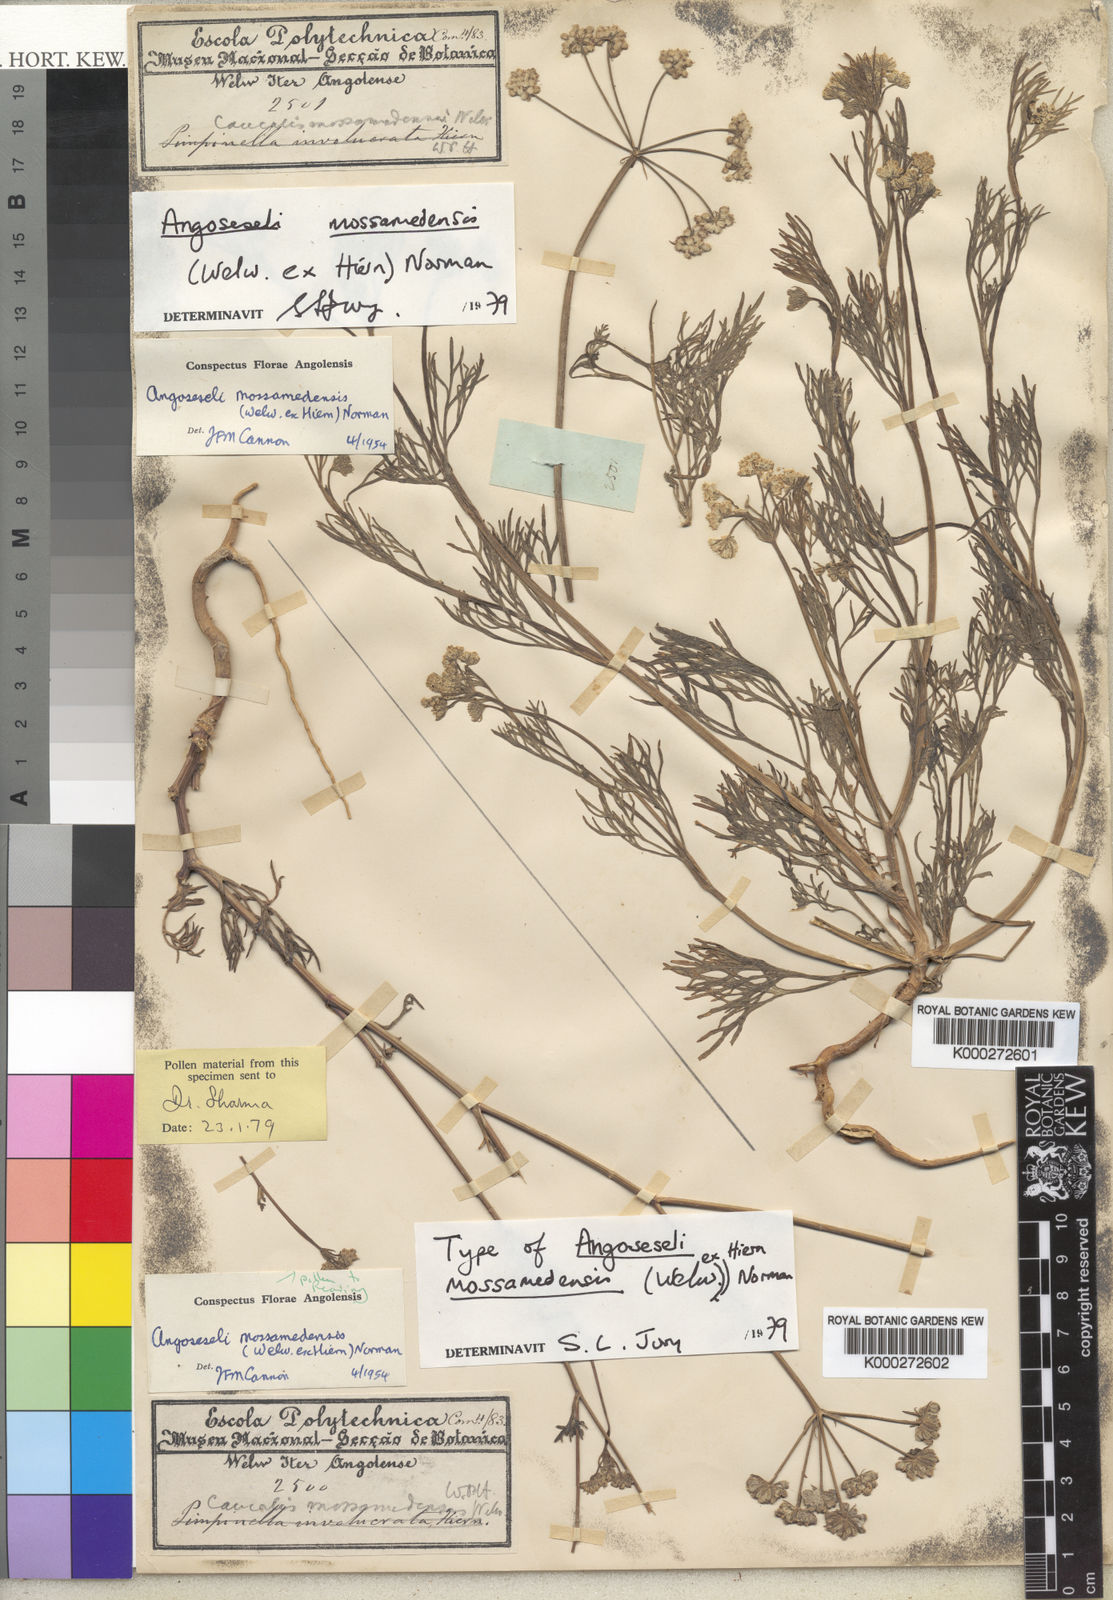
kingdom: Plantae
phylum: Tracheophyta
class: Magnoliopsida
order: Apiales
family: Apiaceae
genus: Angoseseli
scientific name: Angoseseli mossamedensis
